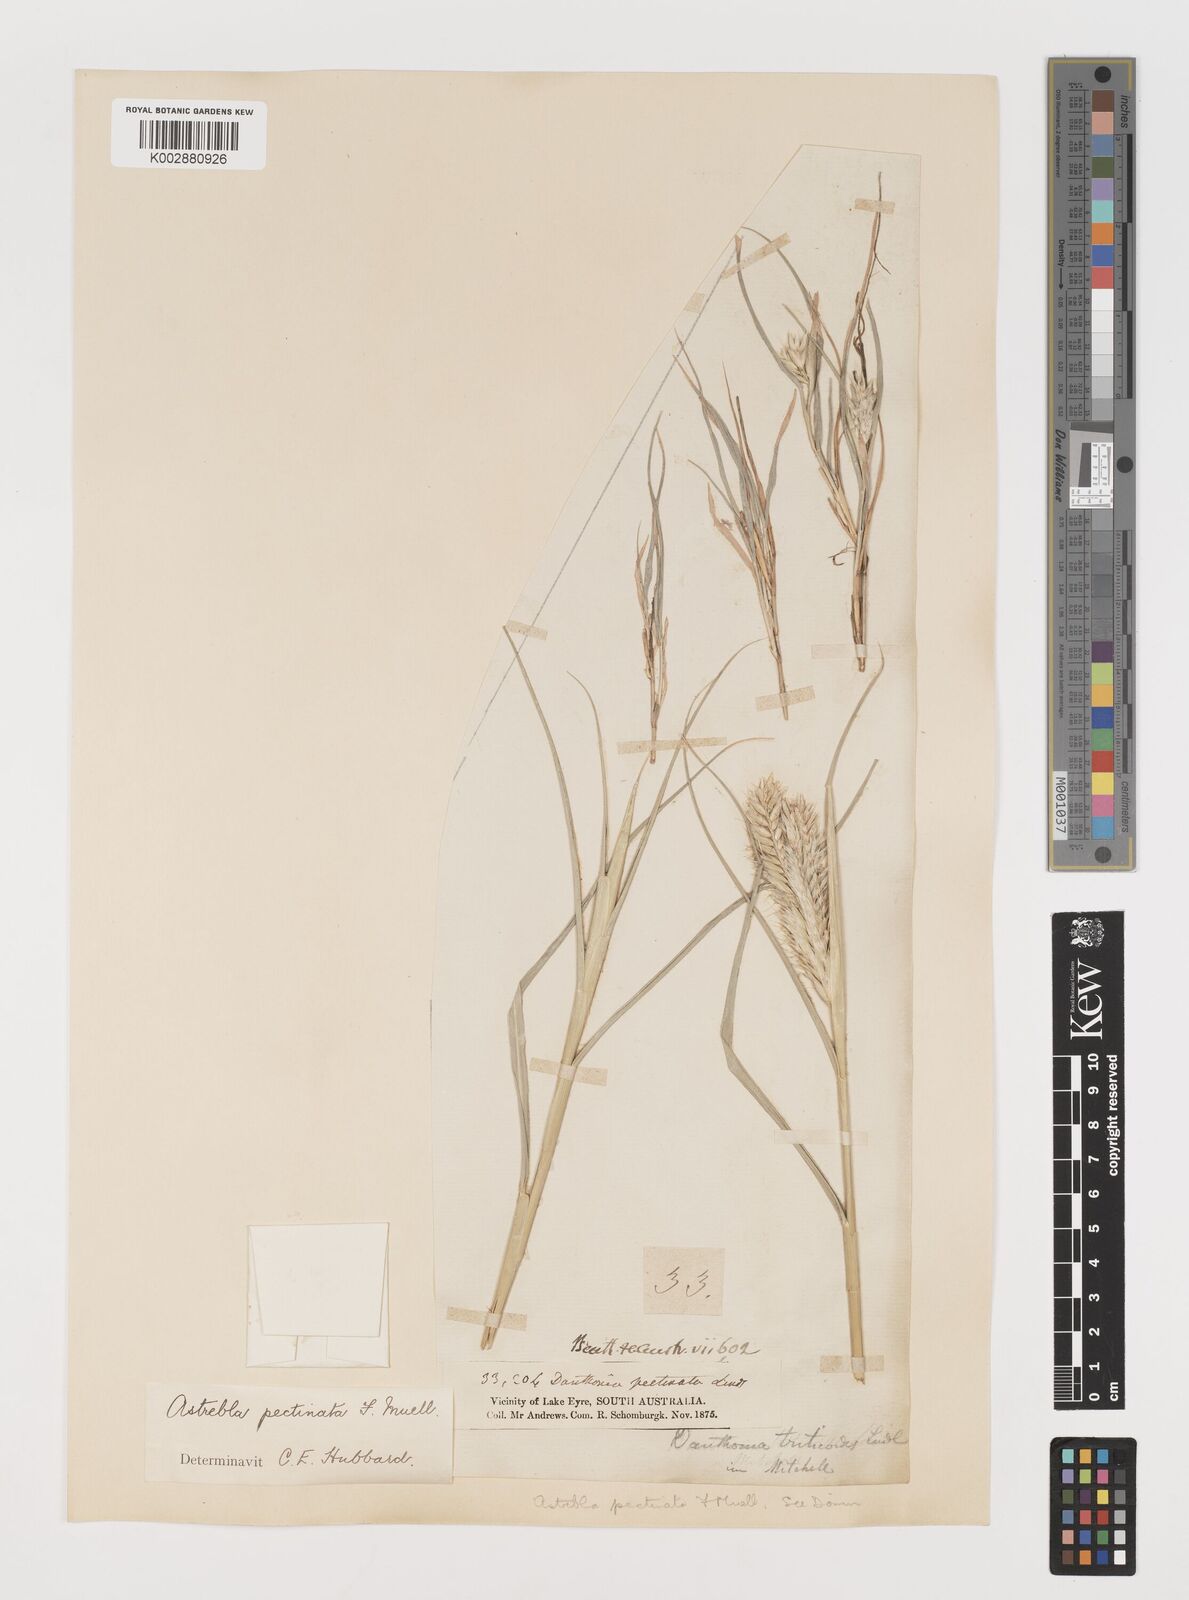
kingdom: Plantae
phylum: Tracheophyta
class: Liliopsida
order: Poales
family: Poaceae
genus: Astrebla
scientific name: Astrebla pectinata
